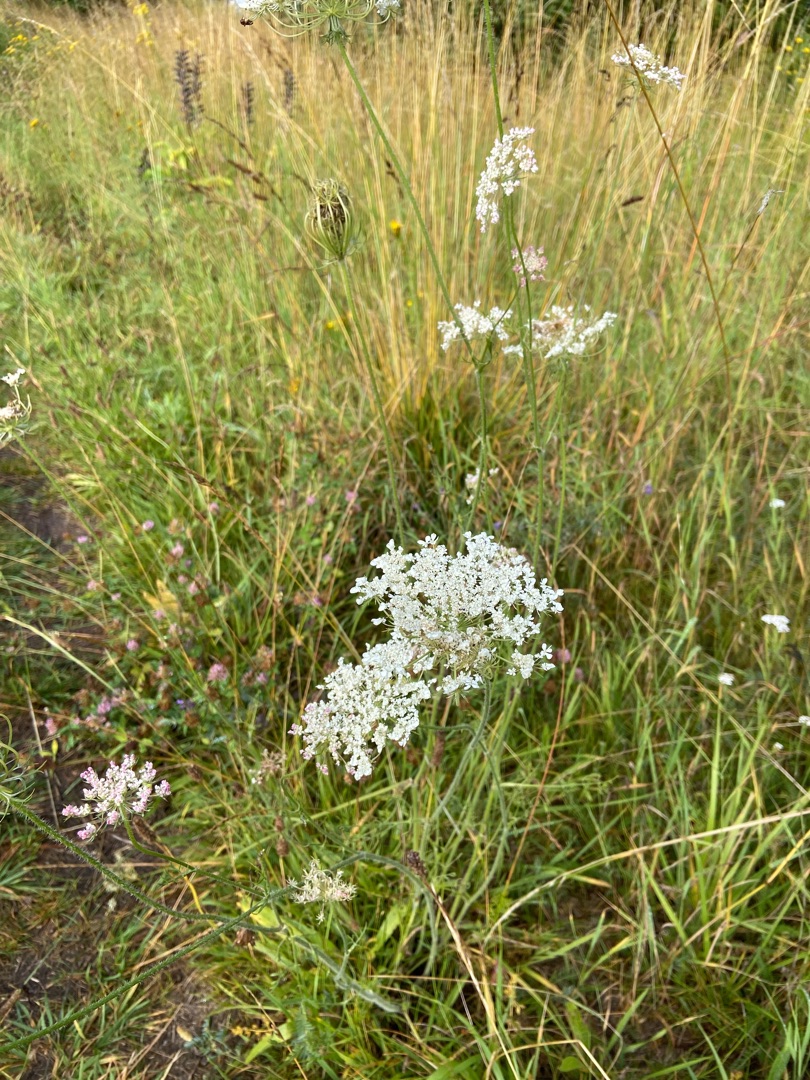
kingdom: Plantae
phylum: Tracheophyta
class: Magnoliopsida
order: Apiales
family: Apiaceae
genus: Daucus
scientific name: Daucus carota
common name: Gulerod
